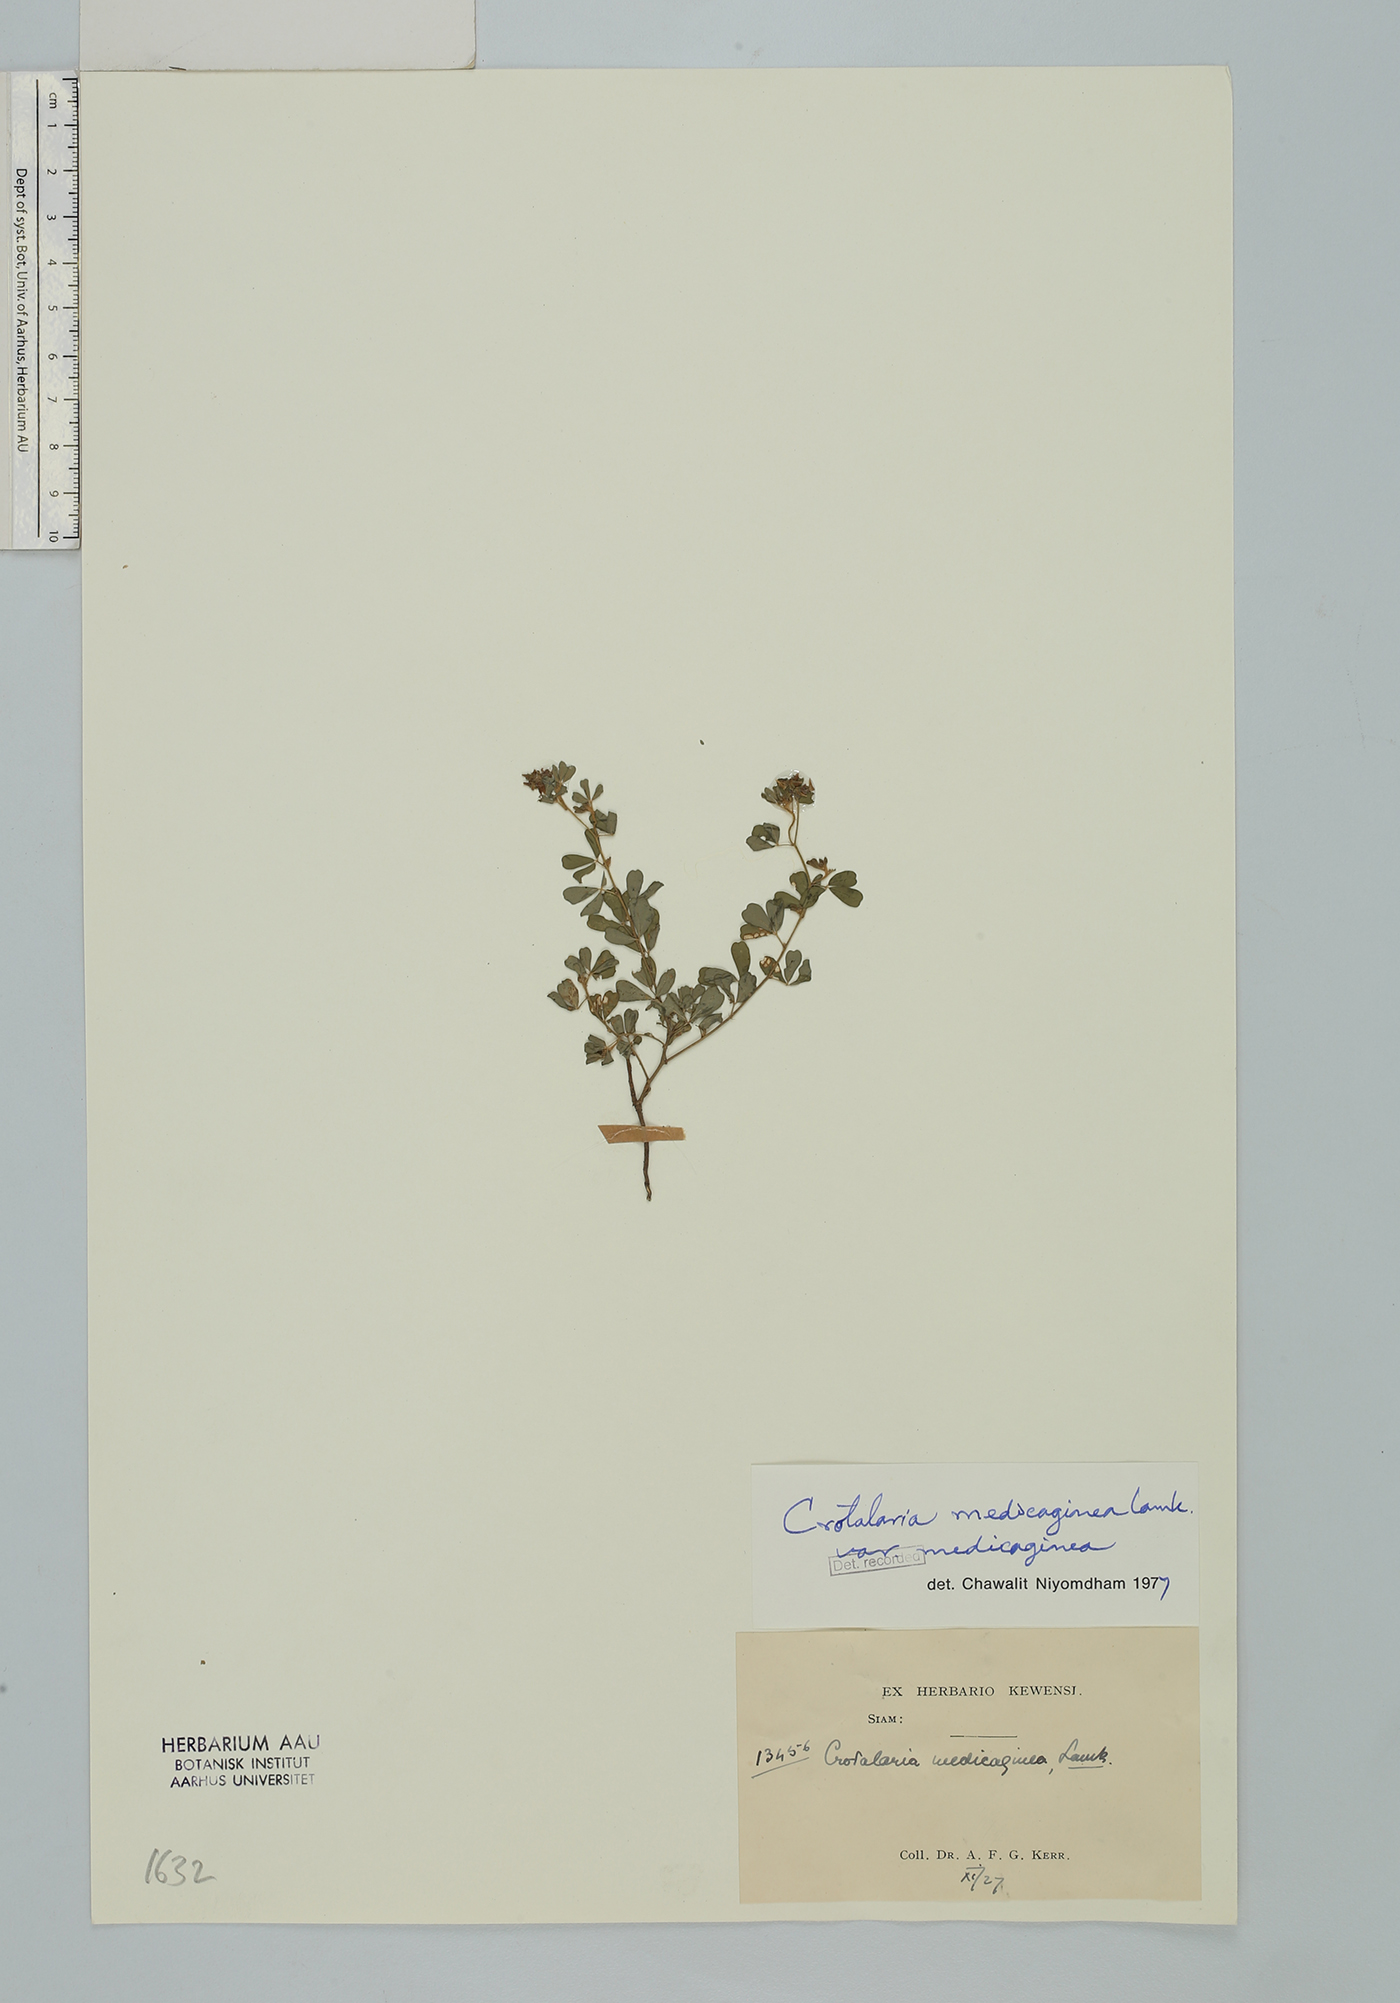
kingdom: Plantae
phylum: Tracheophyta
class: Magnoliopsida
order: Fabales
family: Fabaceae
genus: Crotalaria
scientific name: Crotalaria medicaginea
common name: Trefoil rattlepod
